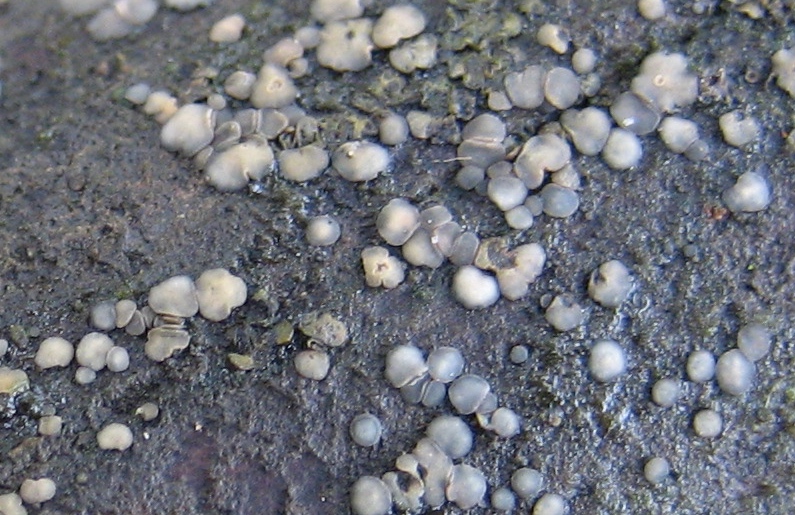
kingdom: Fungi
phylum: Ascomycota
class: Leotiomycetes
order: Helotiales
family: Mollisiaceae
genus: Mollisia
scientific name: Mollisia
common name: gråskive
